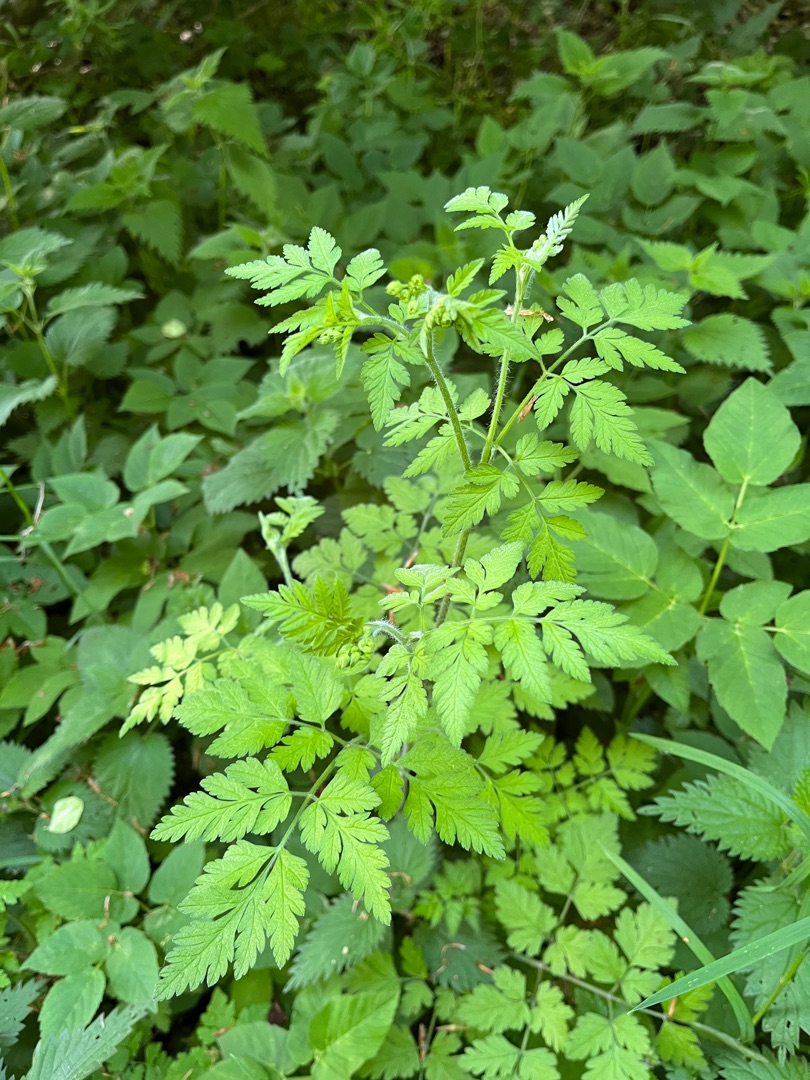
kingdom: Plantae
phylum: Tracheophyta
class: Magnoliopsida
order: Apiales
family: Apiaceae
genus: Chaerophyllum
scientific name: Chaerophyllum temulum
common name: Almindelig hulsvøb
